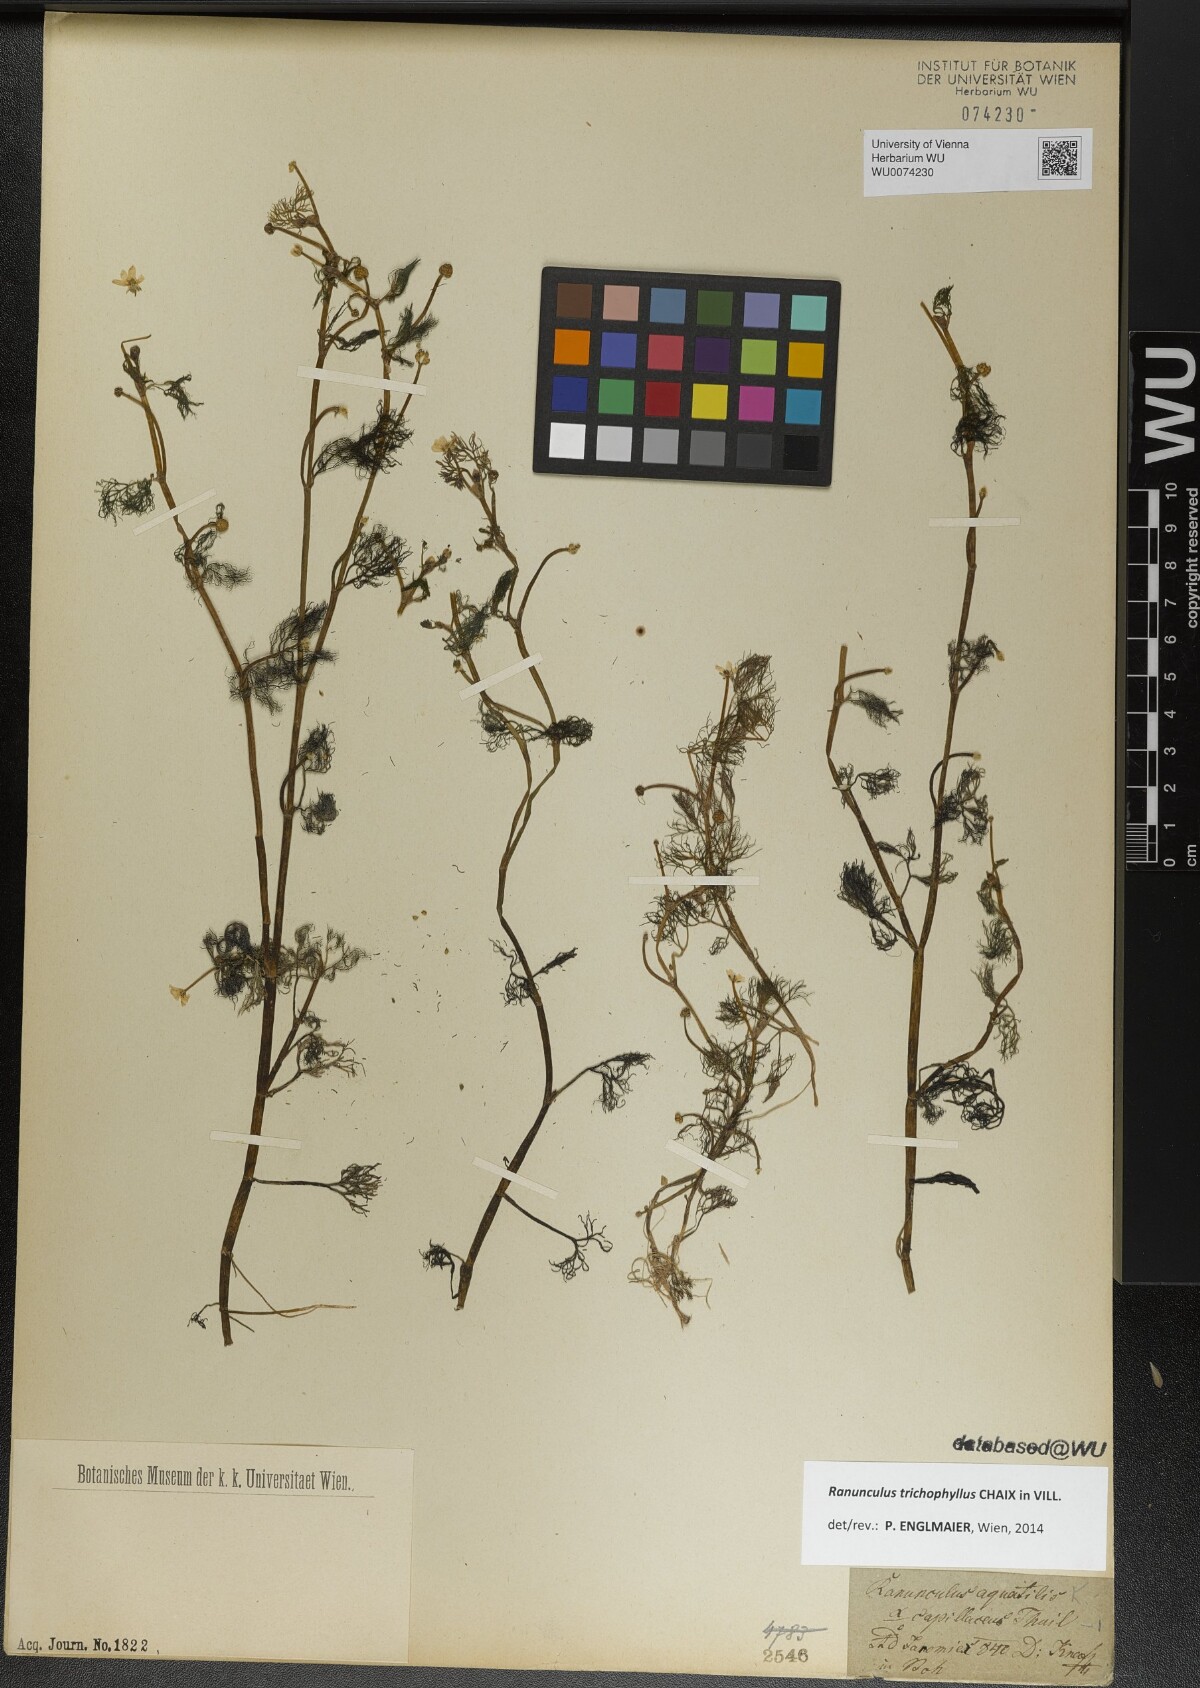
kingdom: Plantae
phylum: Tracheophyta
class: Magnoliopsida
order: Ranunculales
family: Ranunculaceae
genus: Ranunculus
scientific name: Ranunculus trichophyllus
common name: Thread-leaved water-crowfoot
